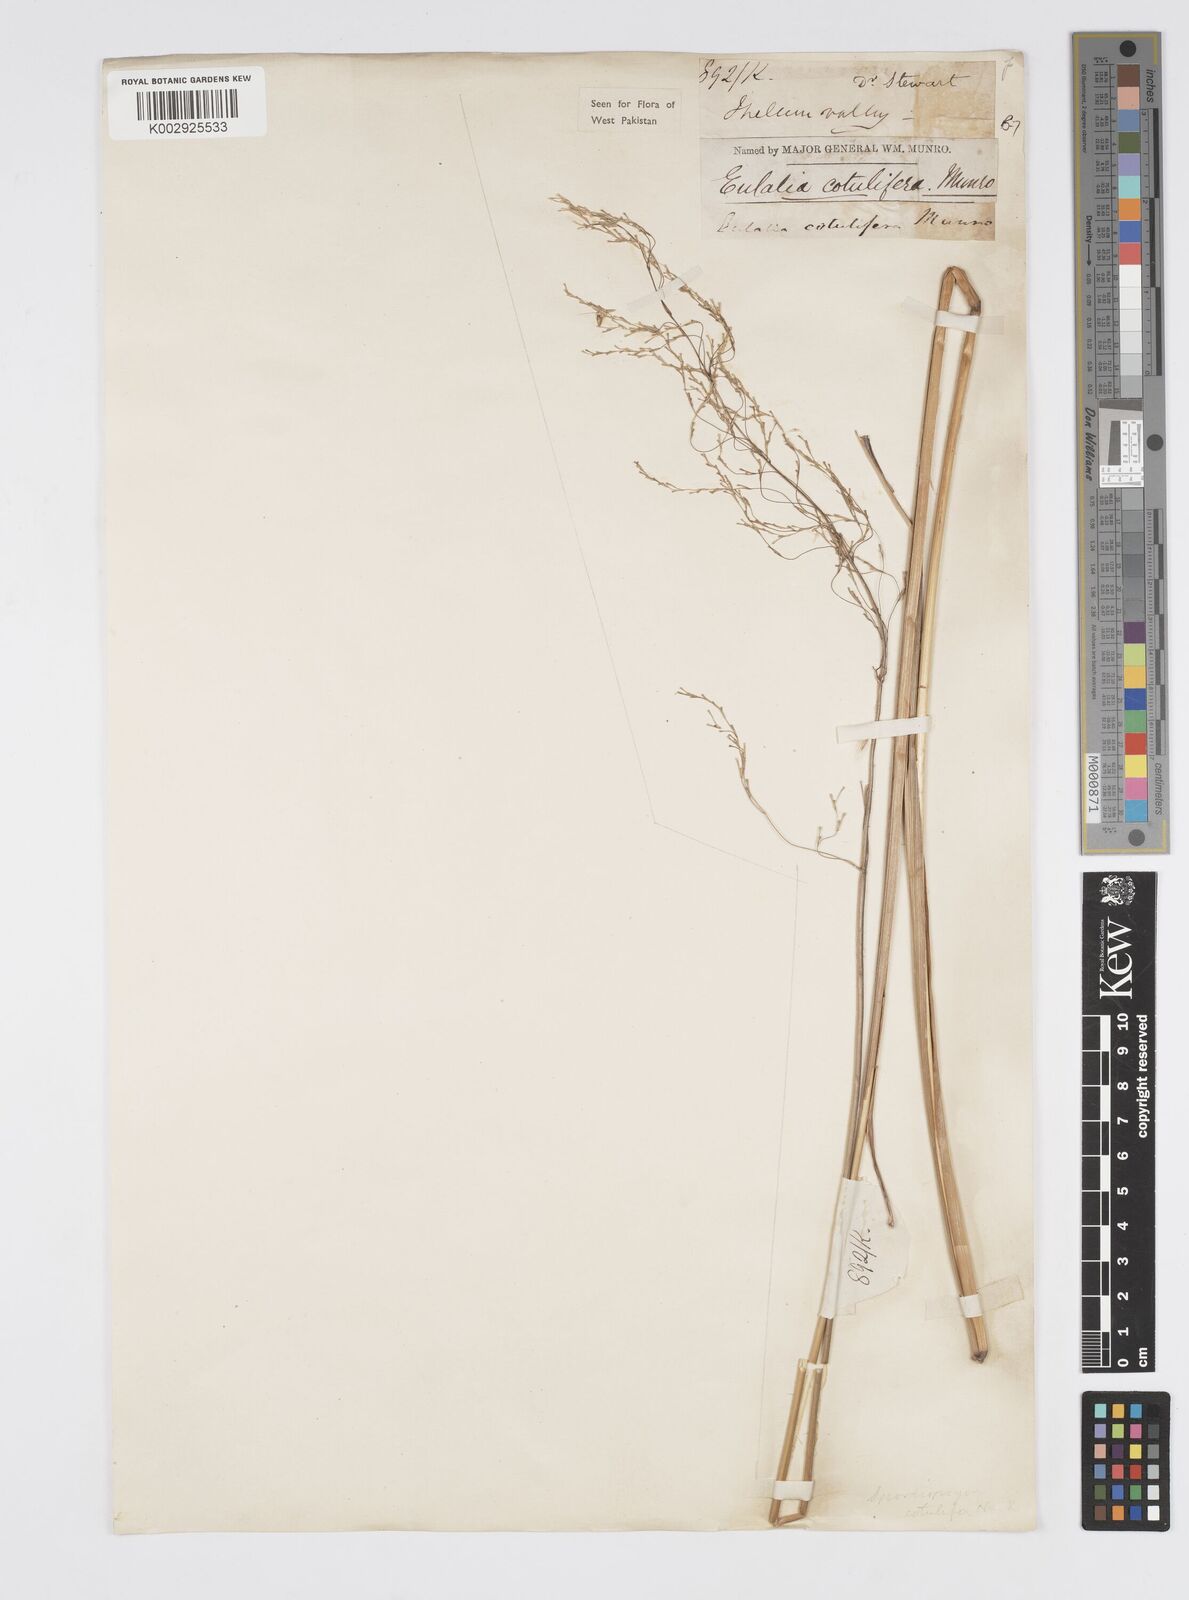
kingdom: Plantae
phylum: Tracheophyta
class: Liliopsida
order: Poales
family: Poaceae
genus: Spodiopogon
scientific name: Spodiopogon cotulifer
